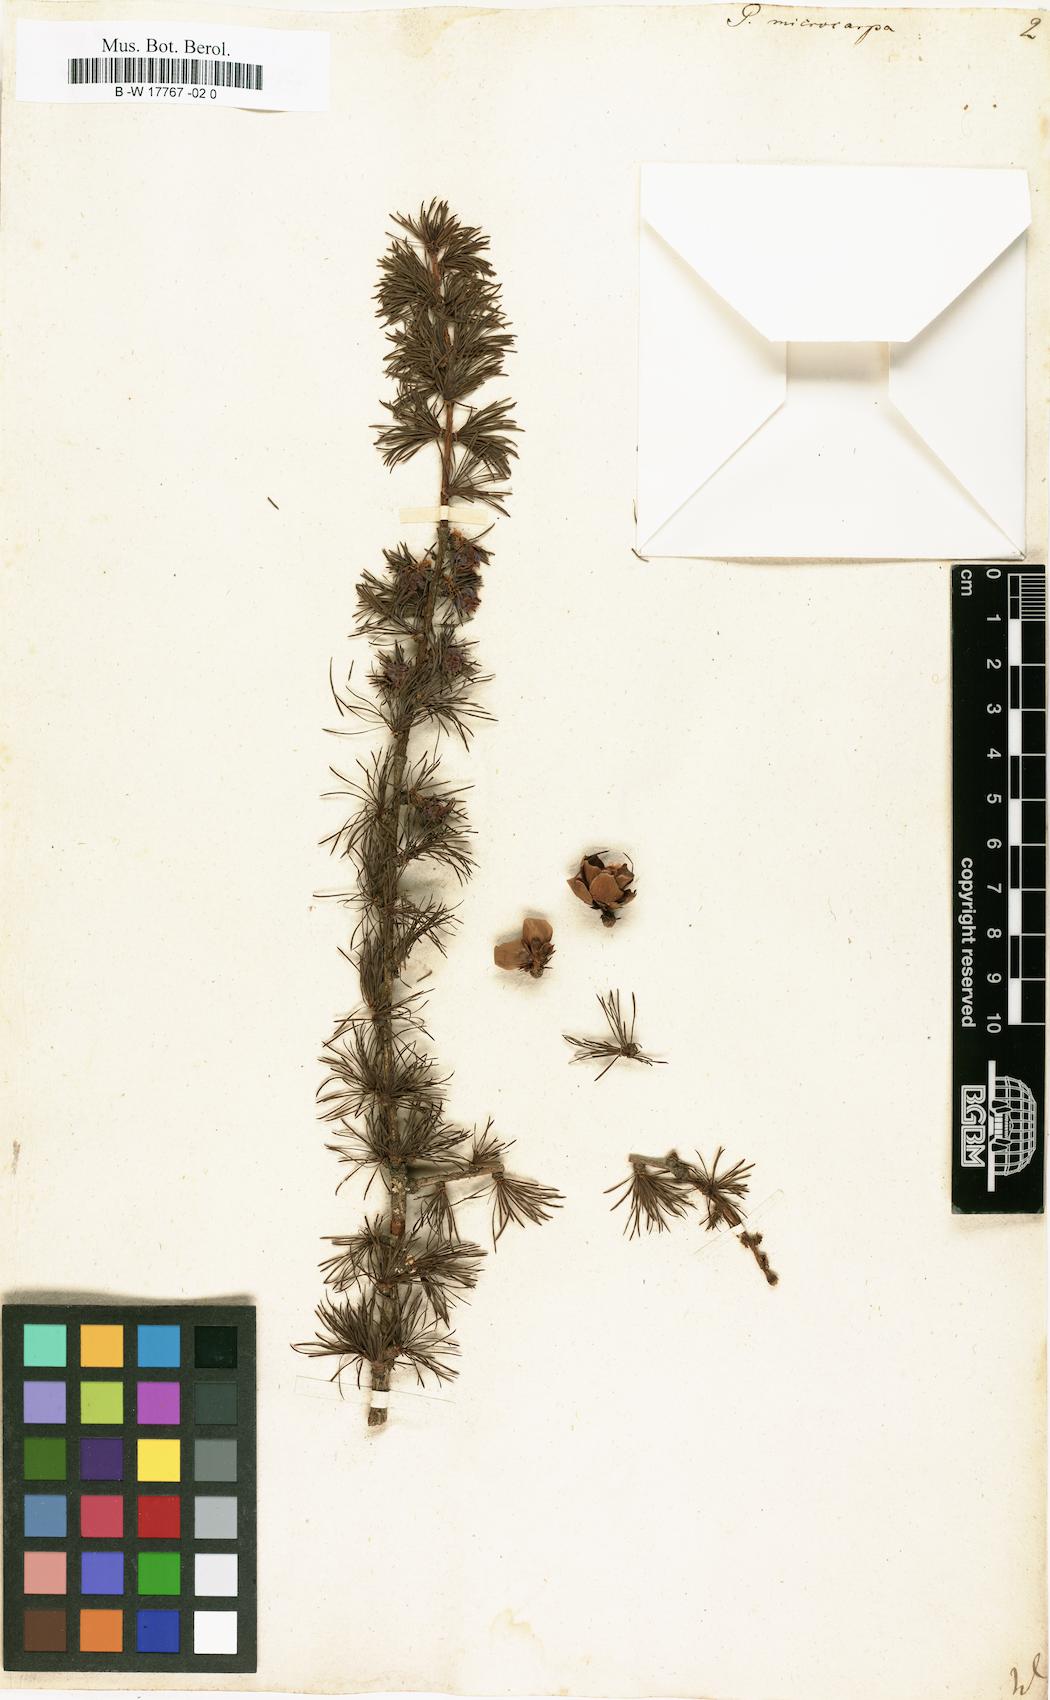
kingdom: Plantae
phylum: Tracheophyta
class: Pinopsida
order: Pinales
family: Pinaceae
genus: Larix
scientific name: Larix laricina
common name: American larch
